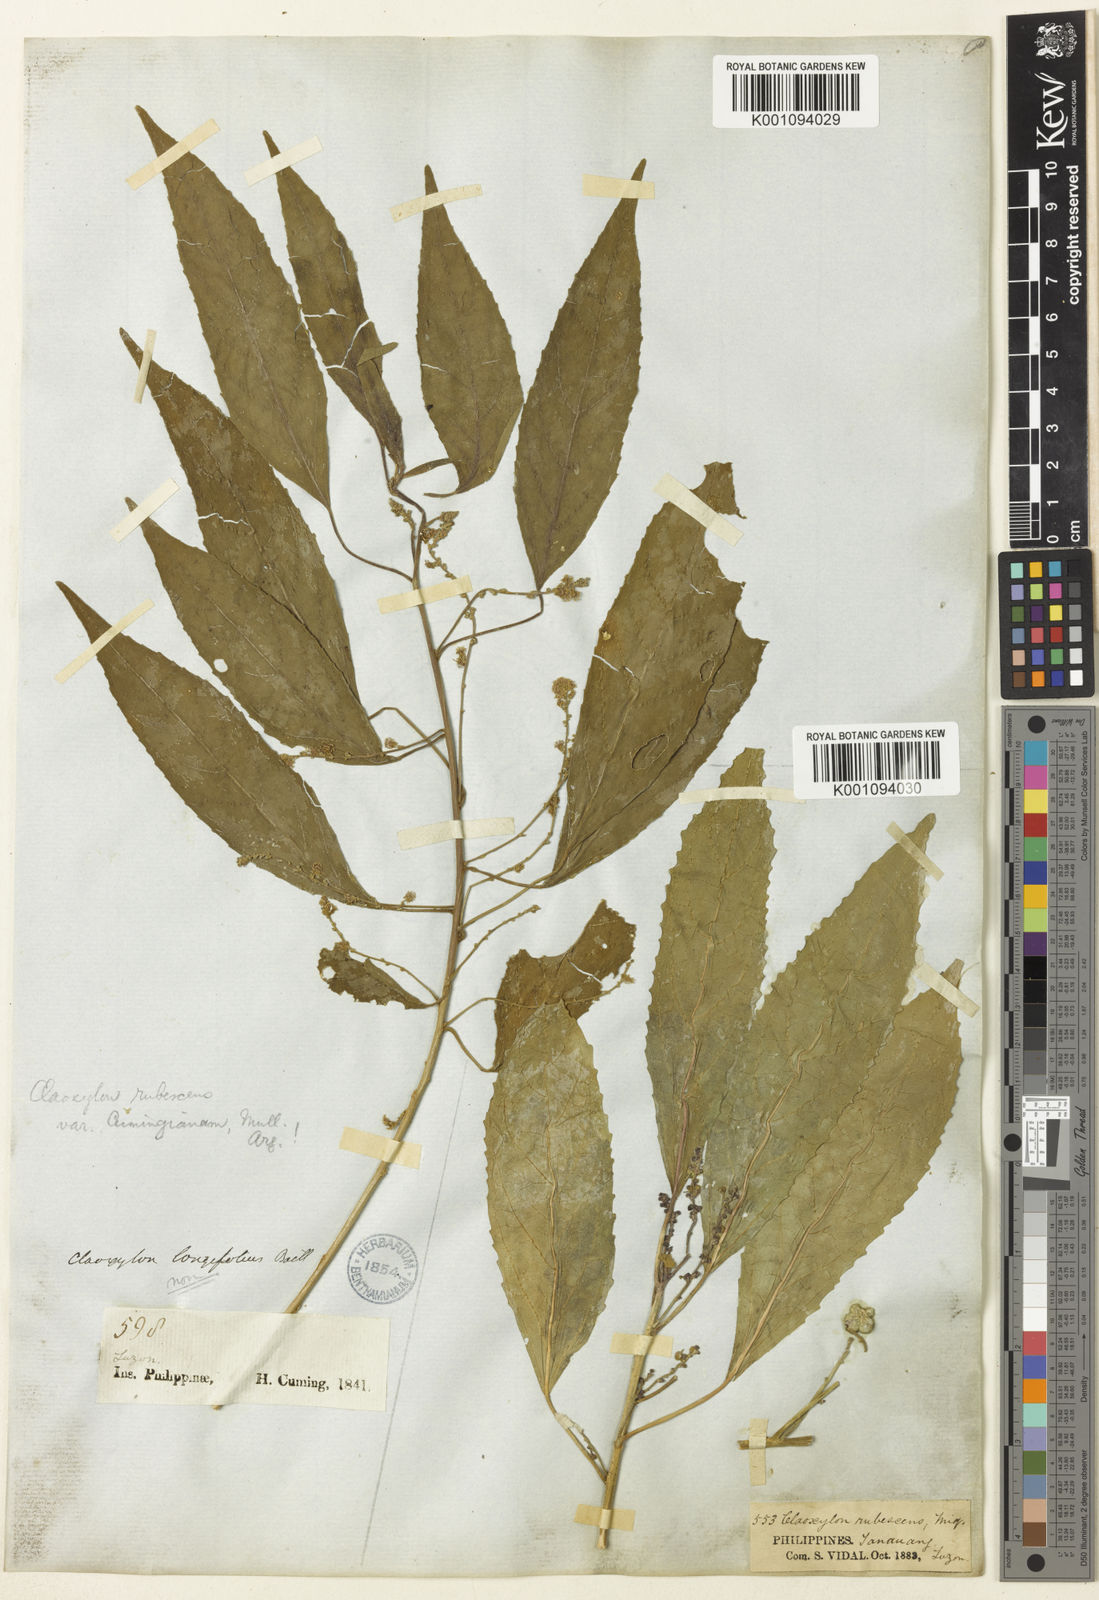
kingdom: Plantae
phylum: Tracheophyta
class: Magnoliopsida
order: Malpighiales
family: Euphorbiaceae
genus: Claoxylon
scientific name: Claoxylon subviride
